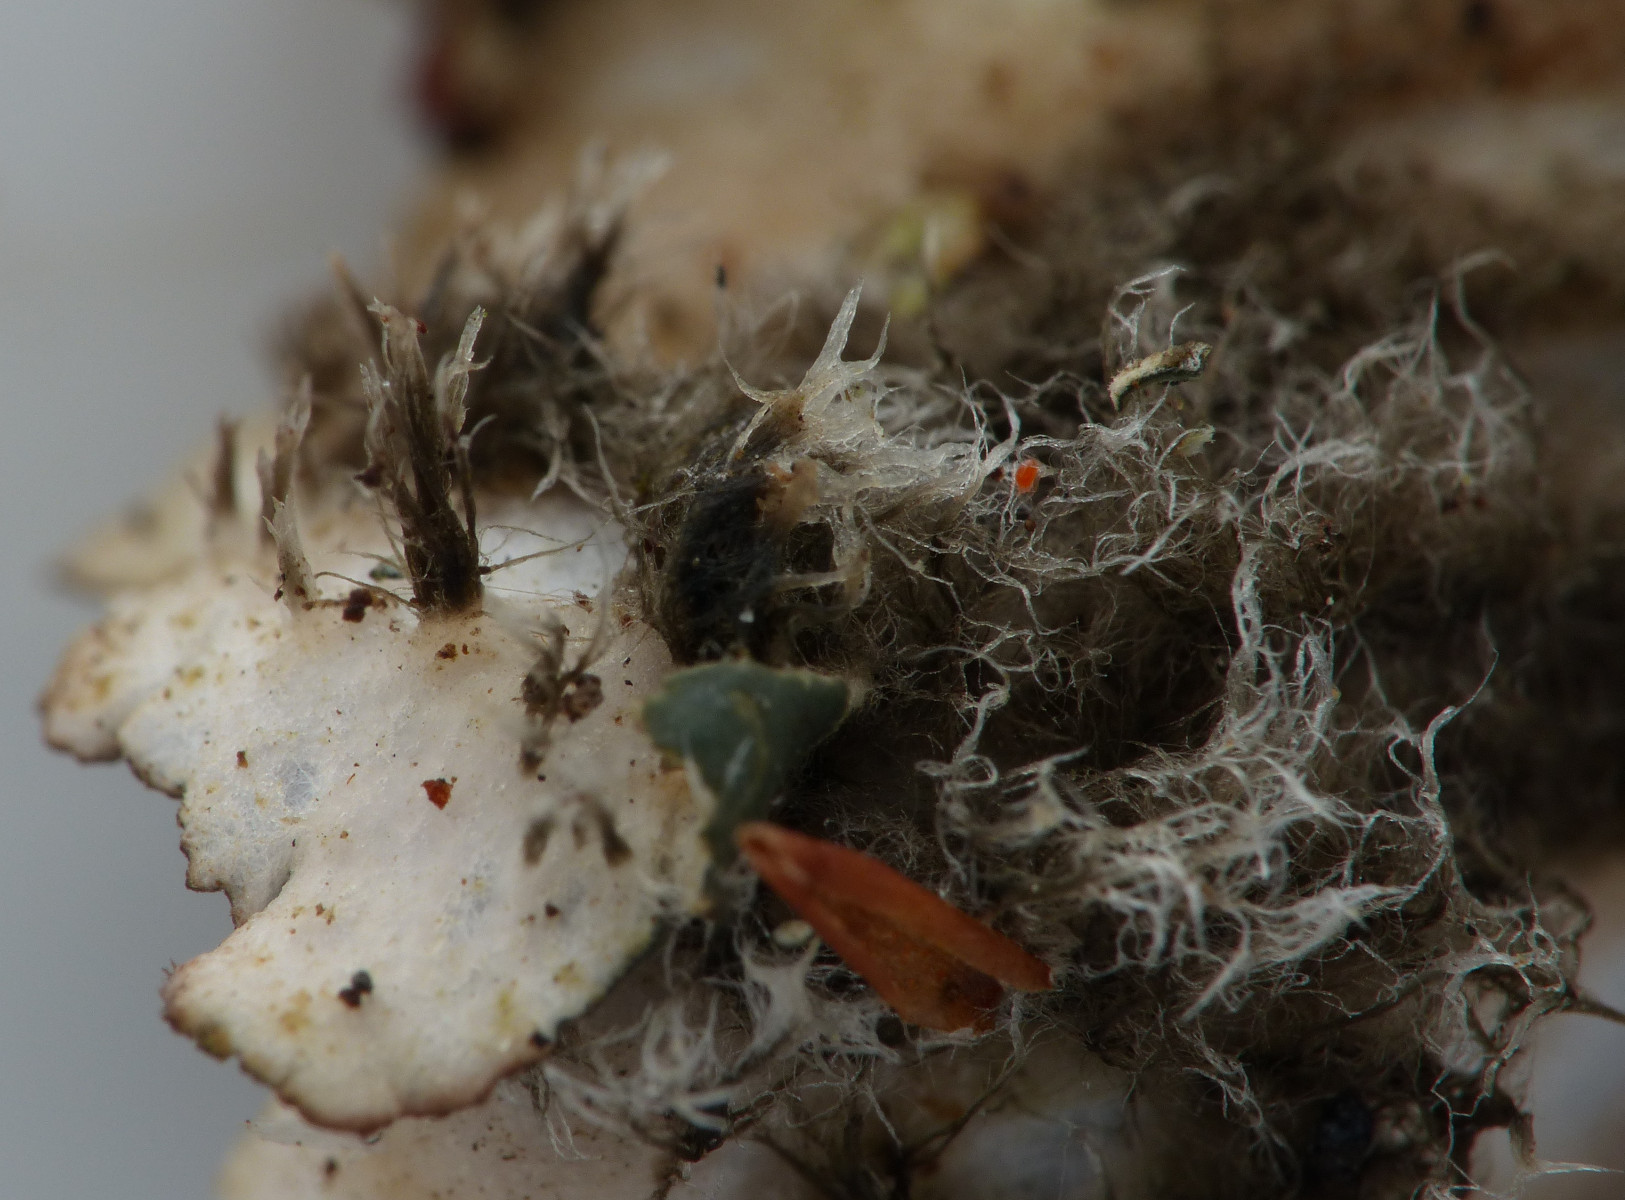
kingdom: Fungi
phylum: Ascomycota
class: Lecanoromycetes
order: Peltigerales
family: Peltigeraceae
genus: Peltigera
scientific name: Peltigera neckeri
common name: glinsende skjoldlav
